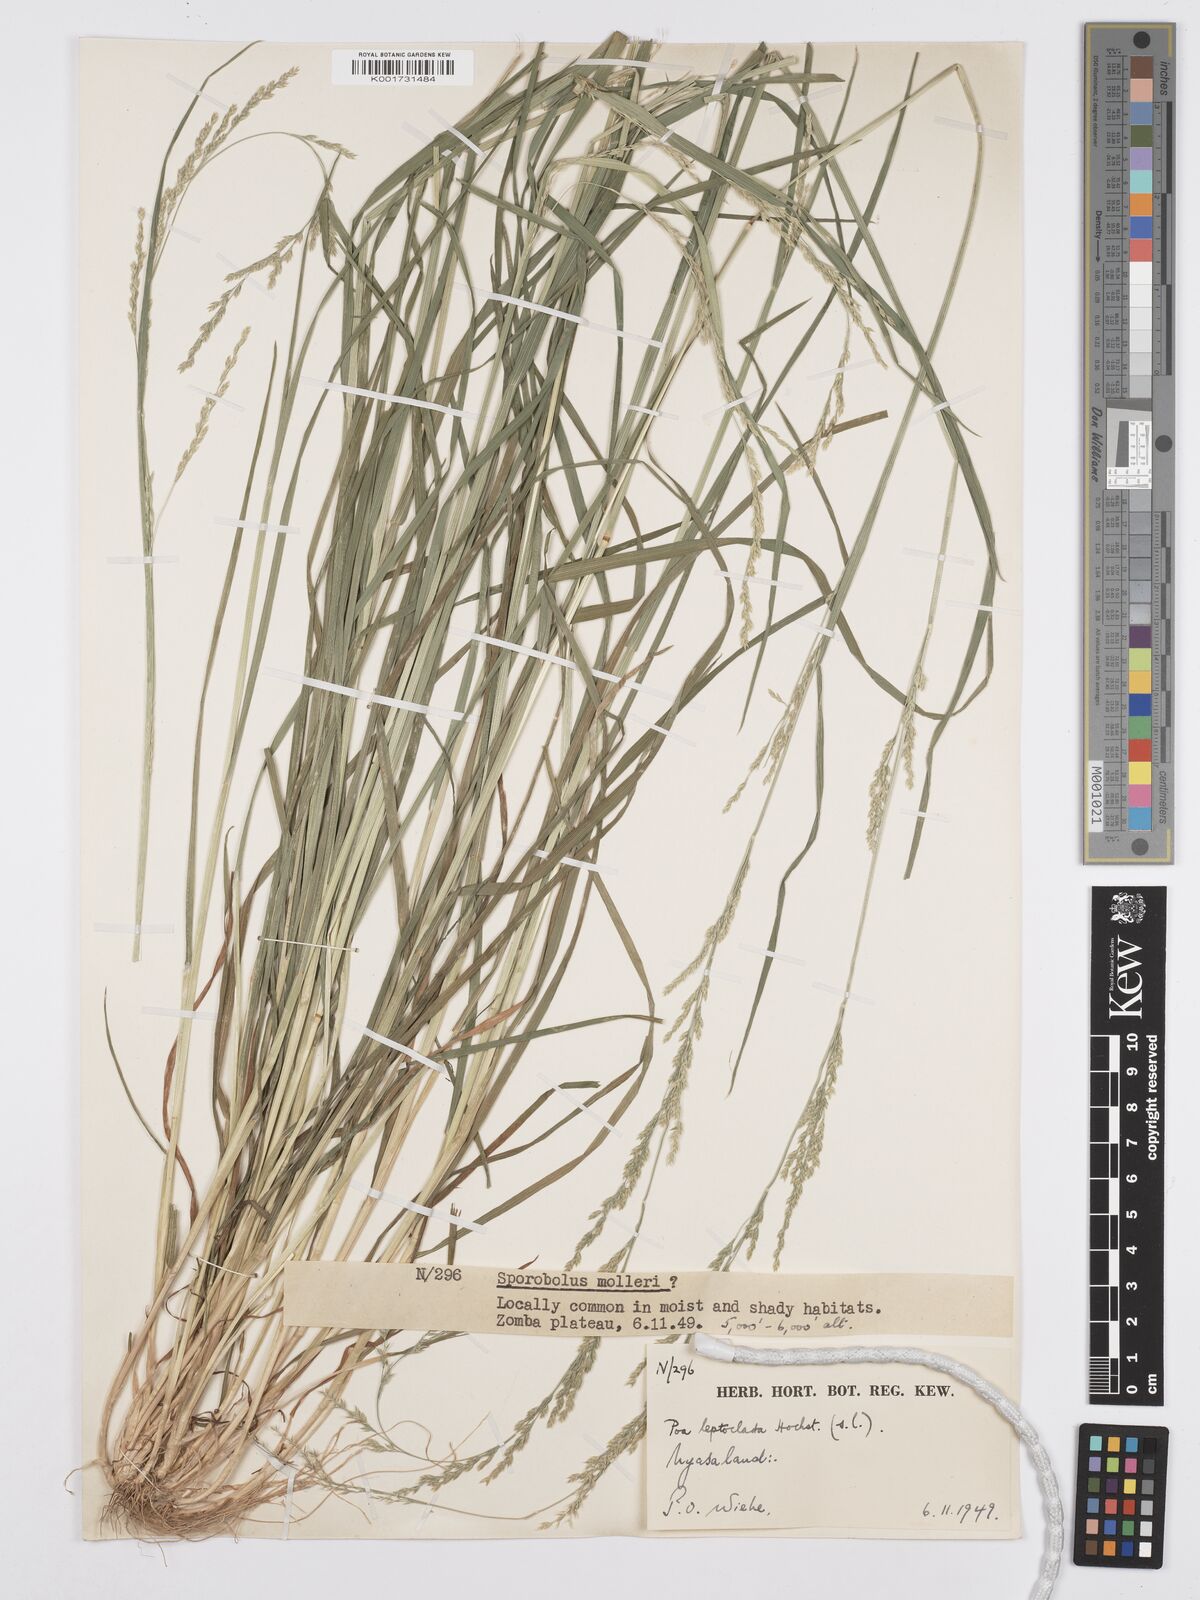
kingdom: Plantae
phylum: Tracheophyta
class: Liliopsida
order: Poales
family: Poaceae
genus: Poa
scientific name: Poa leptoclada
